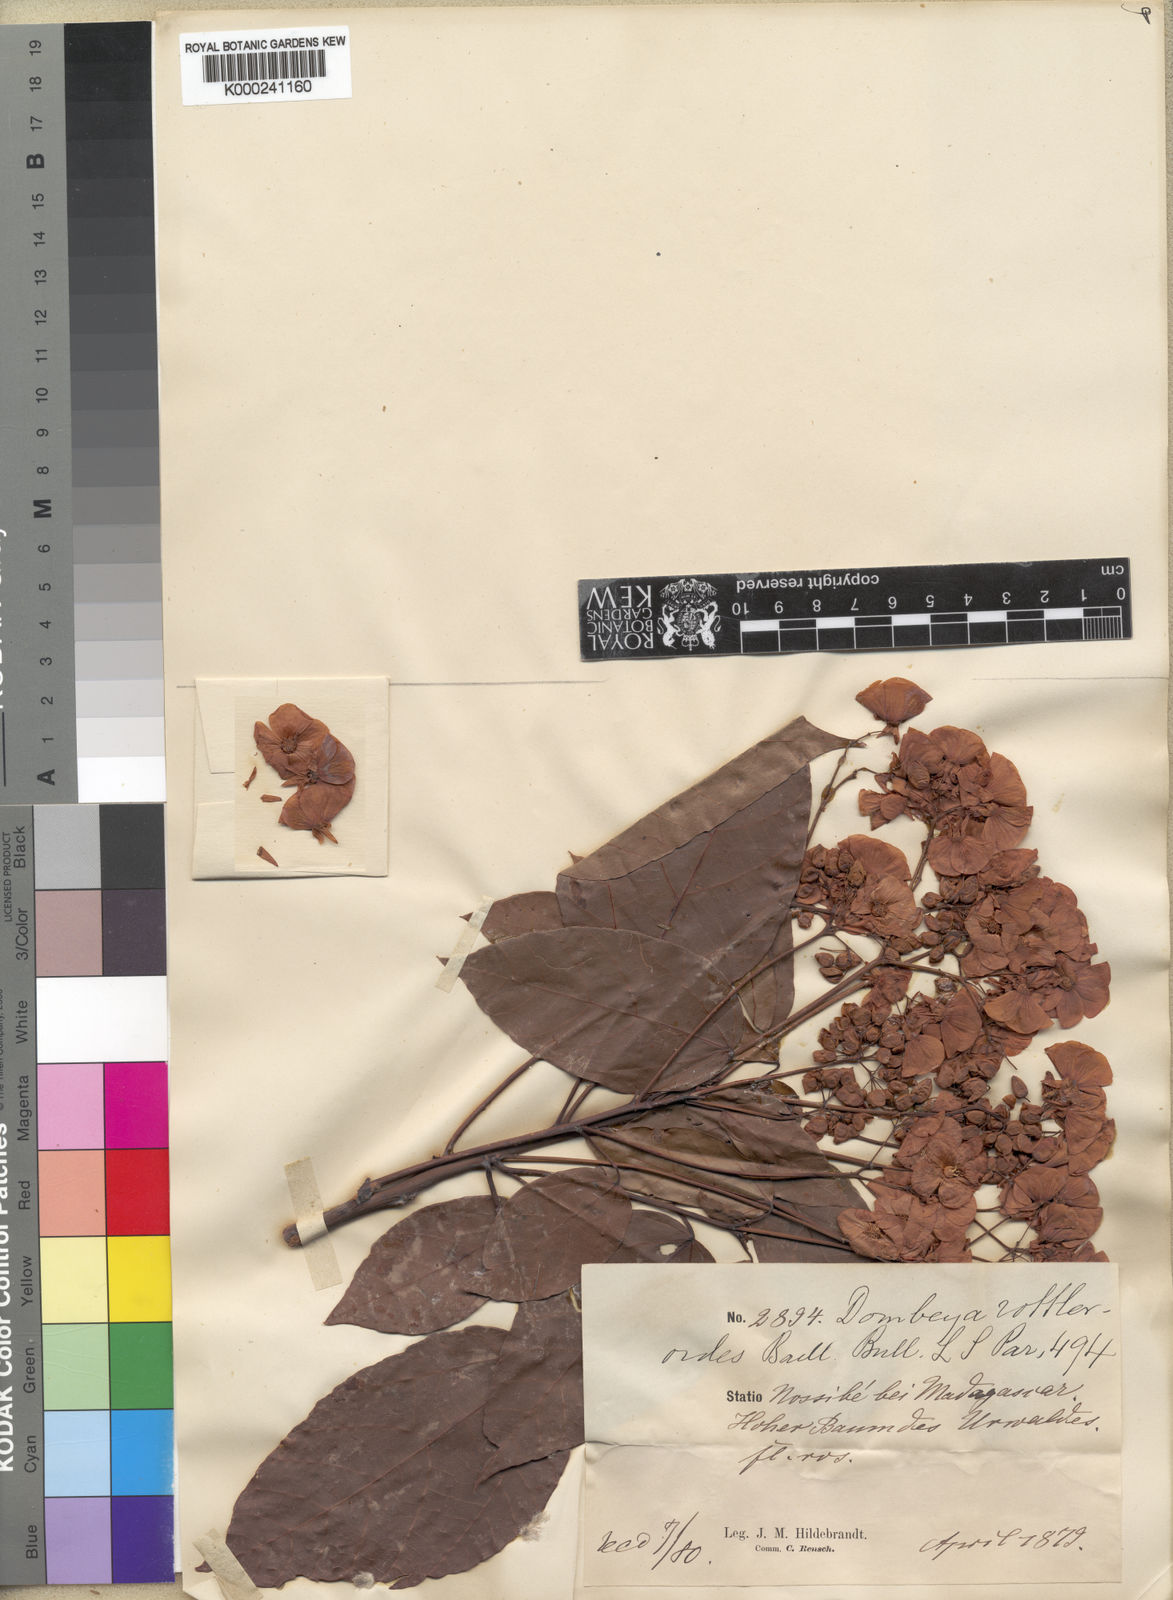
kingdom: Plantae
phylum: Tracheophyta
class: Magnoliopsida
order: Malvales
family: Malvaceae
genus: Dombeya
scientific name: Dombeya rottleroides
